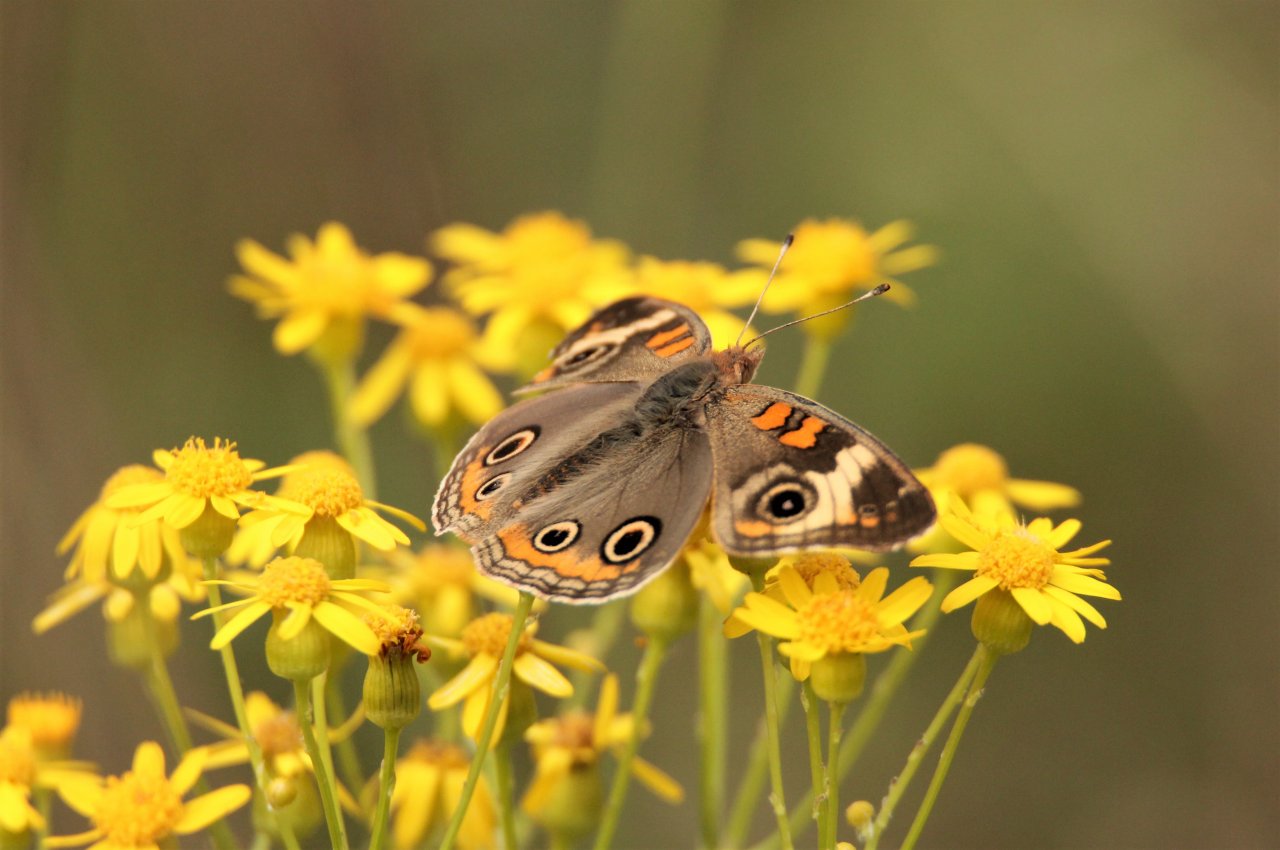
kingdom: Animalia
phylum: Arthropoda
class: Insecta
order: Lepidoptera
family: Nymphalidae
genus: Junonia
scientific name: Junonia coenia
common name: Common Buckeye
